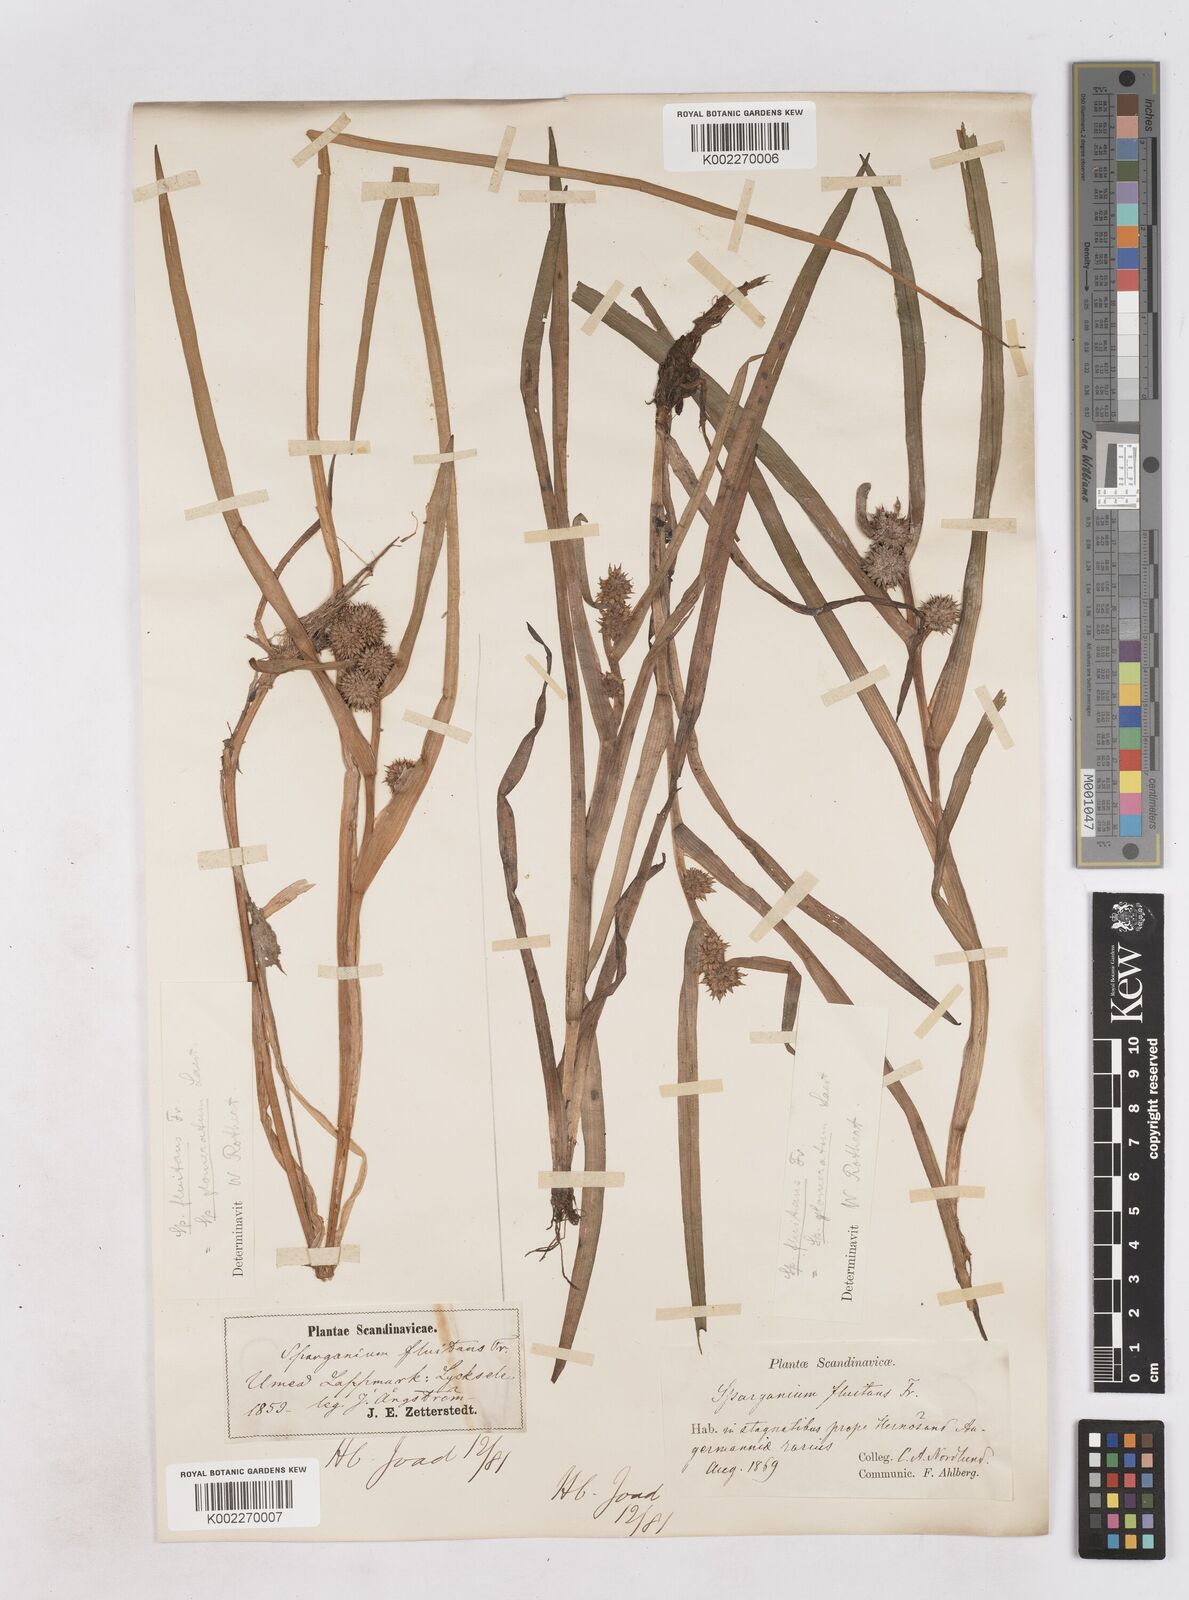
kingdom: Plantae
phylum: Tracheophyta
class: Liliopsida
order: Poales
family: Typhaceae
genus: Sparganium
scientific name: Sparganium angustifolium
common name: Floating bur-reed
